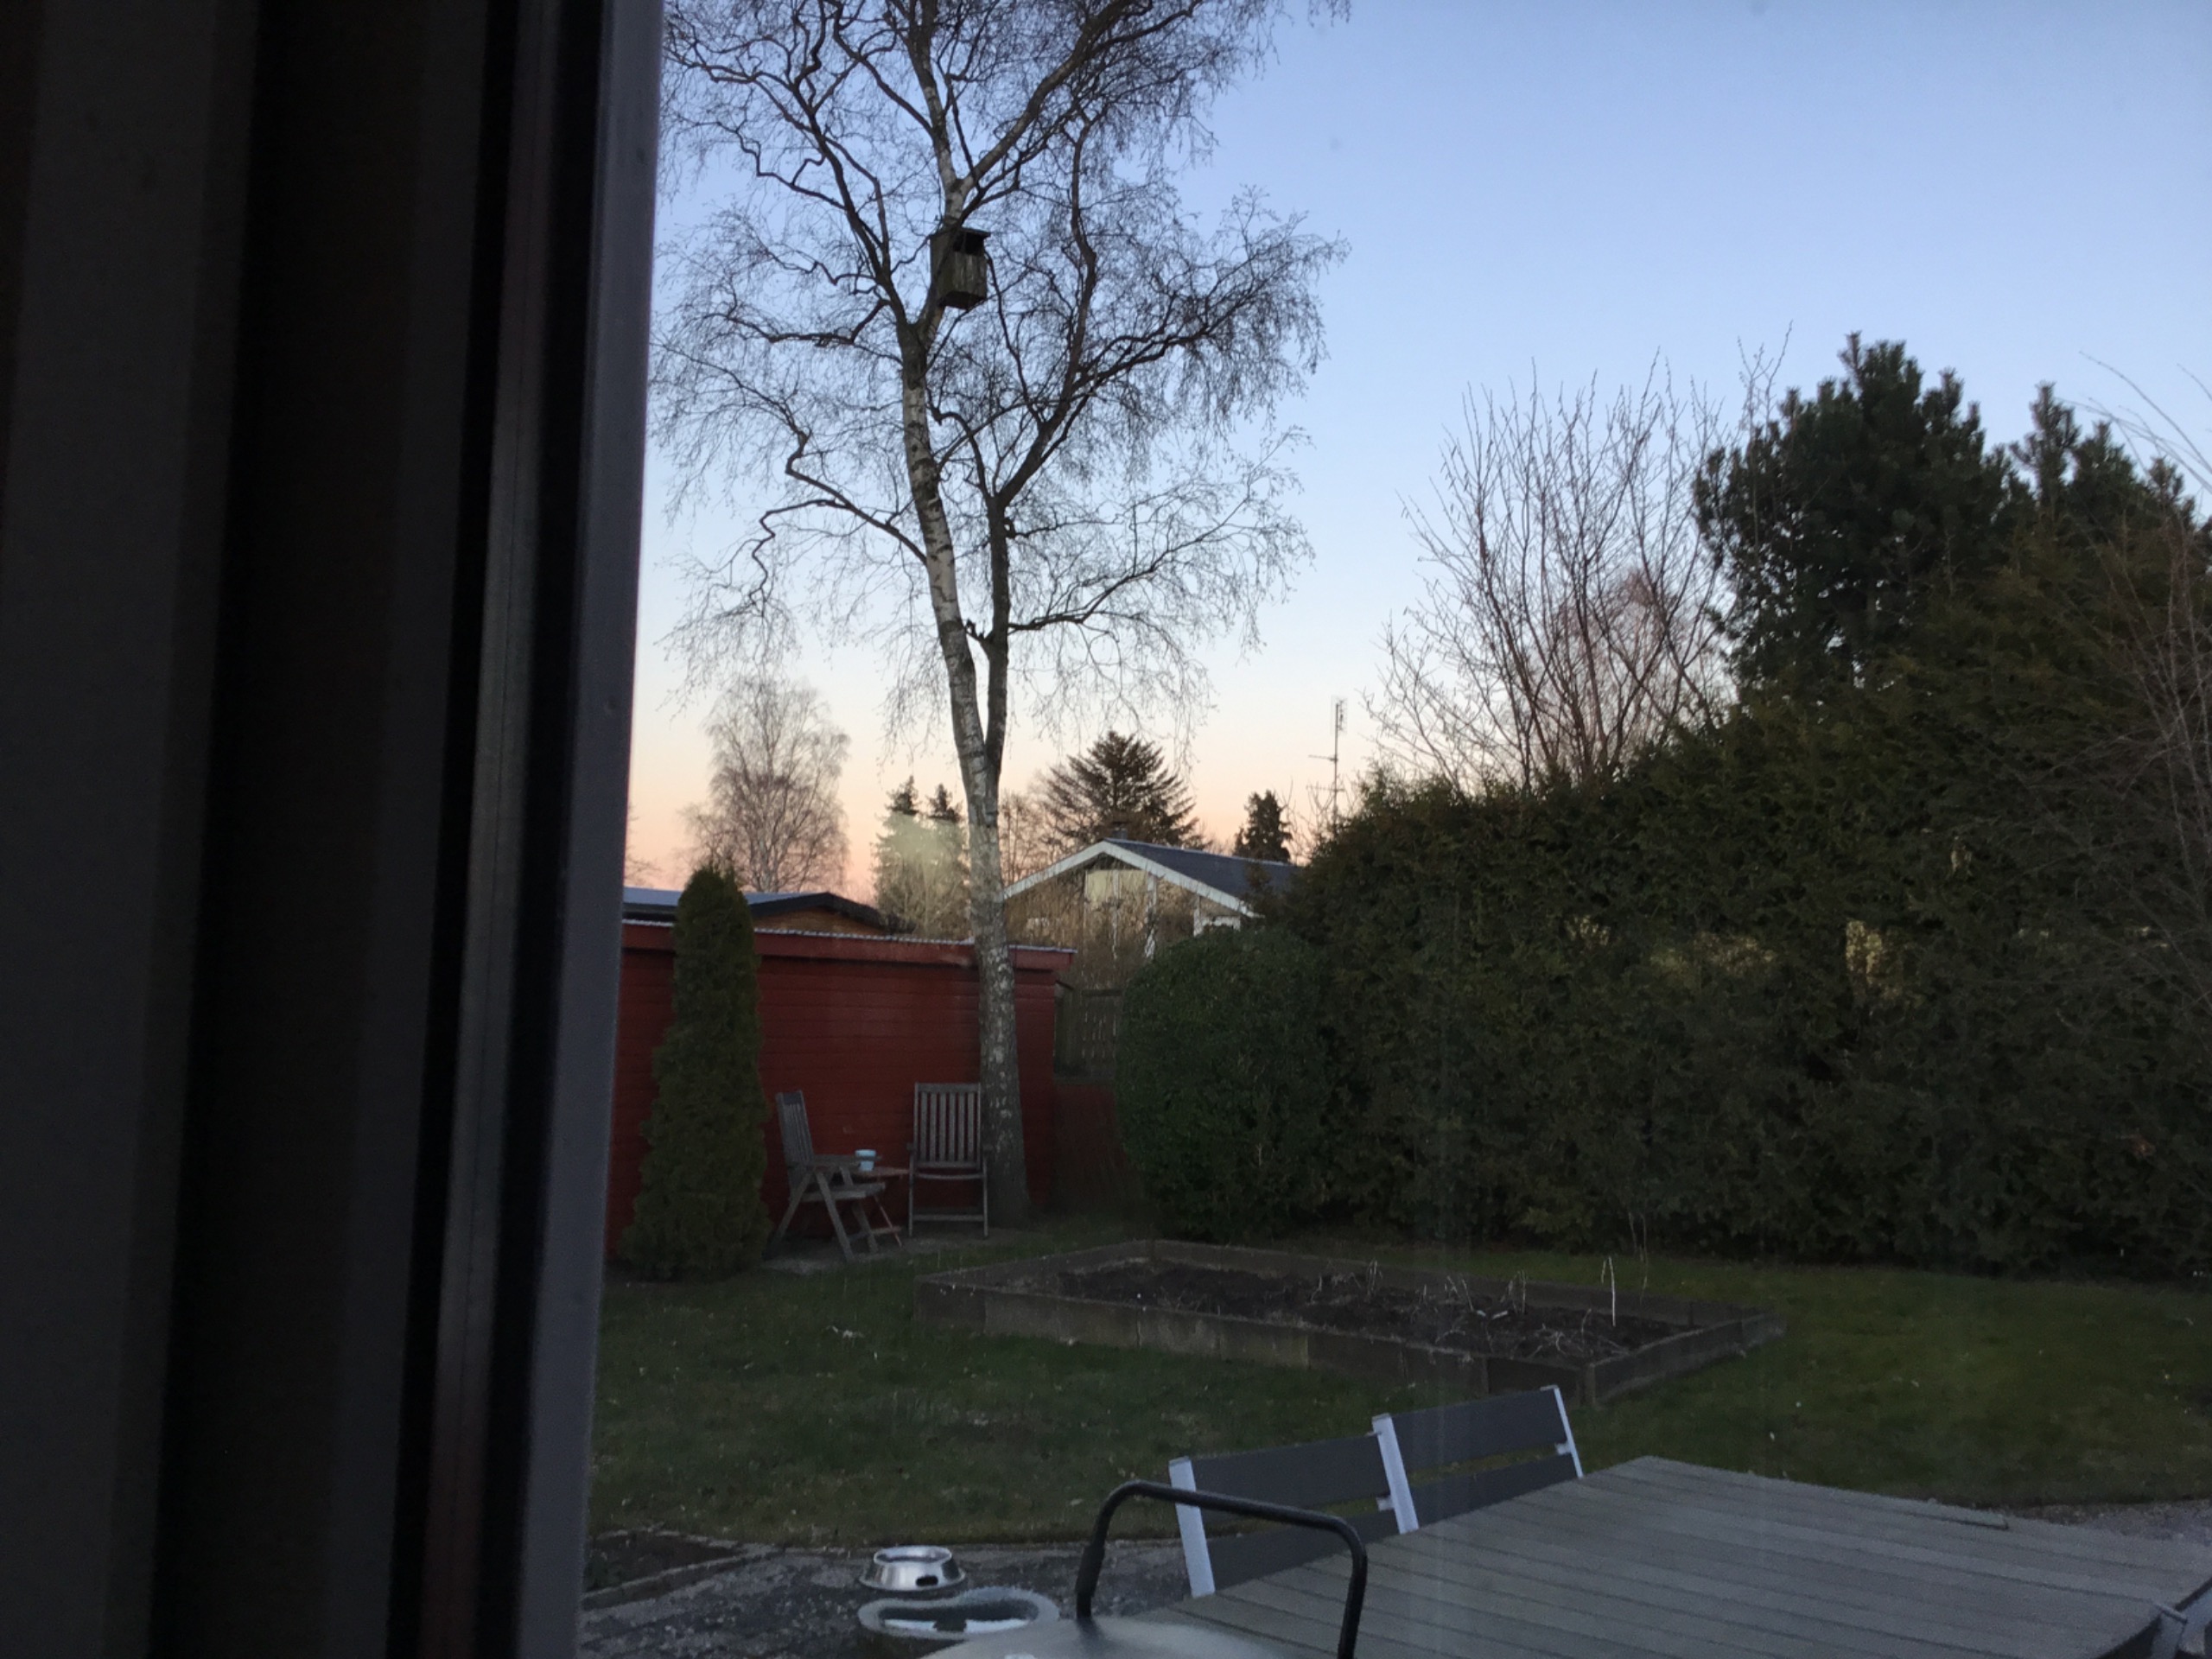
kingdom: Animalia
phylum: Chordata
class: Aves
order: Strigiformes
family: Strigidae
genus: Strix
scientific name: Strix aluco
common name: Natugle
